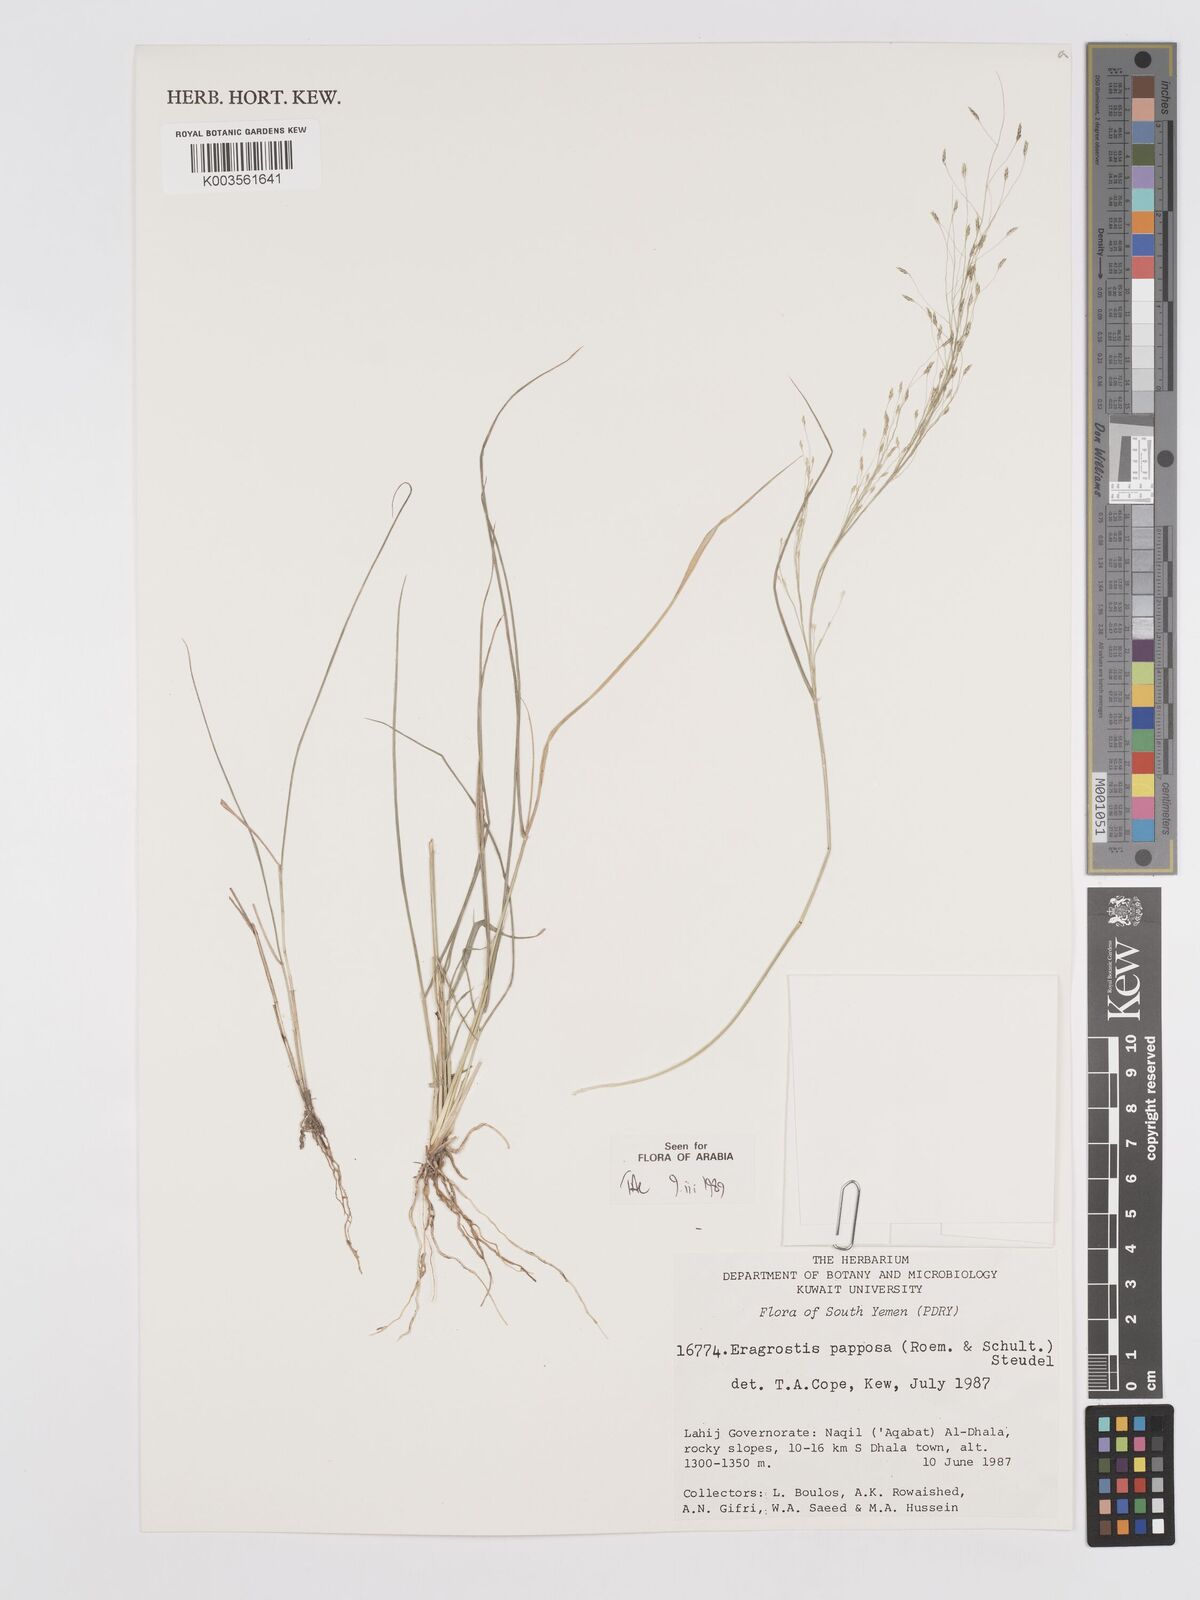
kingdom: Plantae
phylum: Tracheophyta
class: Liliopsida
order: Poales
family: Poaceae
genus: Eragrostis
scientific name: Eragrostis papposa
